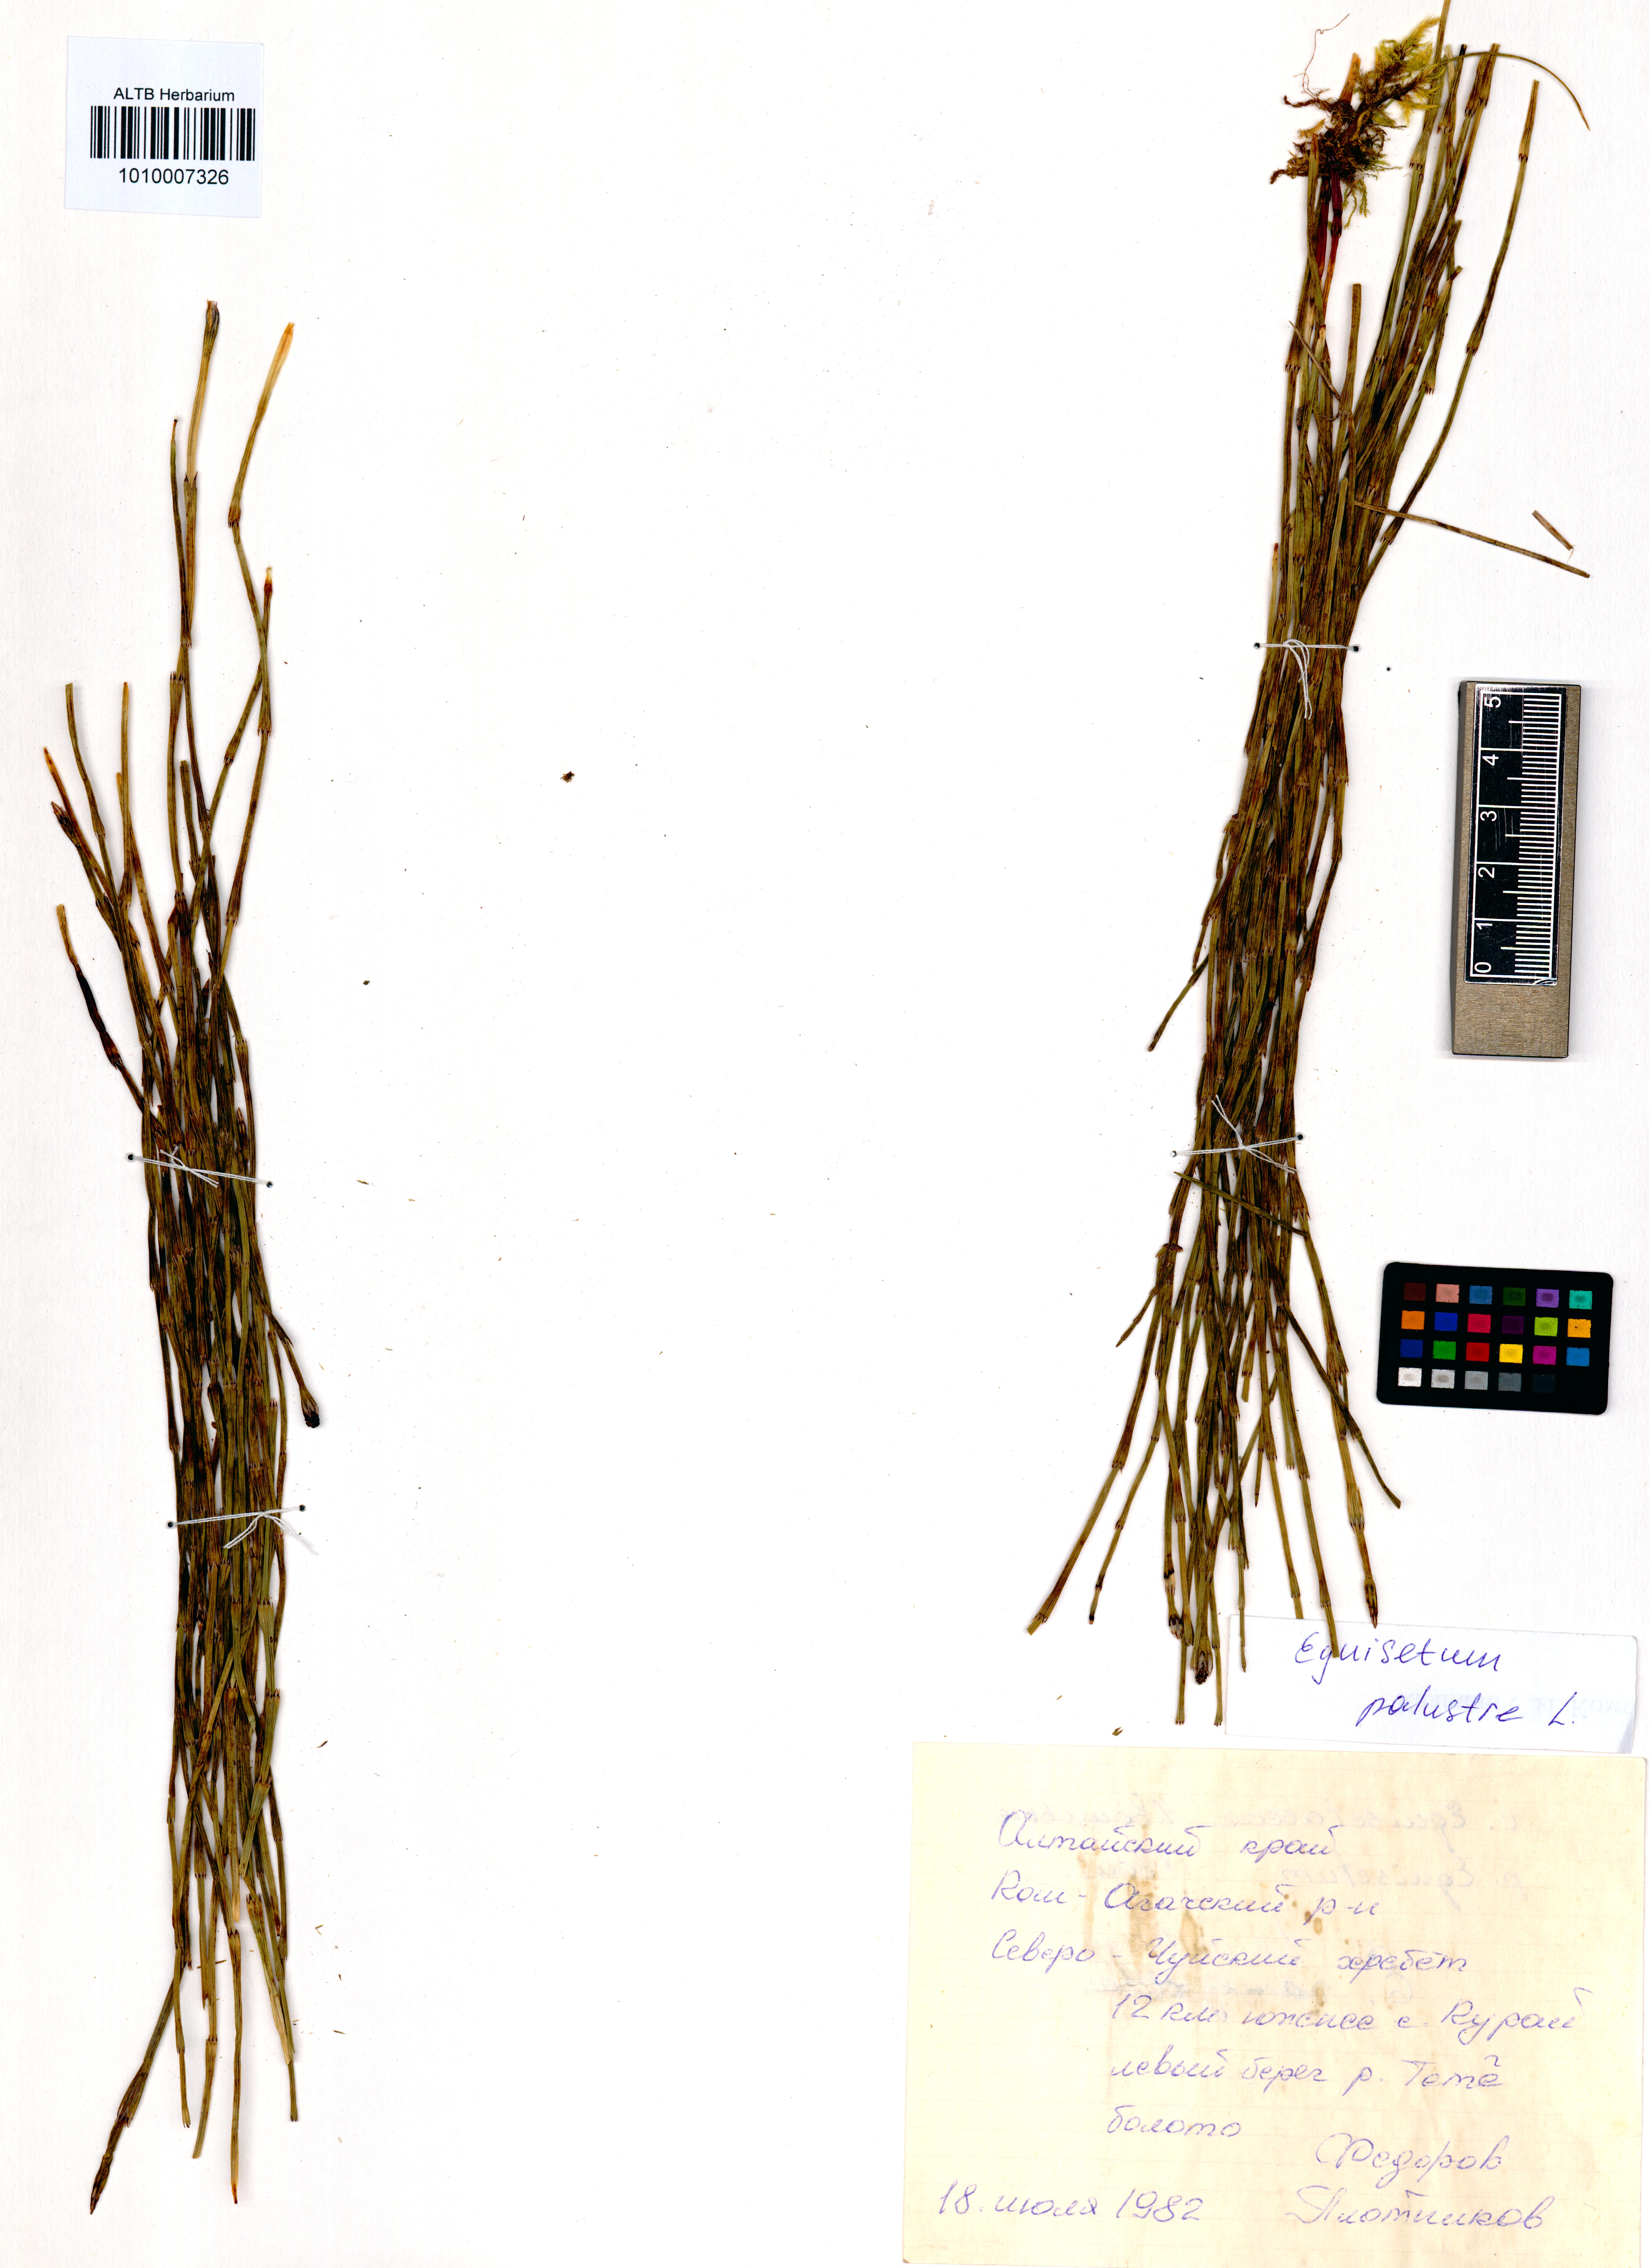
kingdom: Plantae
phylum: Tracheophyta
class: Polypodiopsida
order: Equisetales
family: Equisetaceae
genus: Equisetum
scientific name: Equisetum palustre
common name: Marsh horsetail
